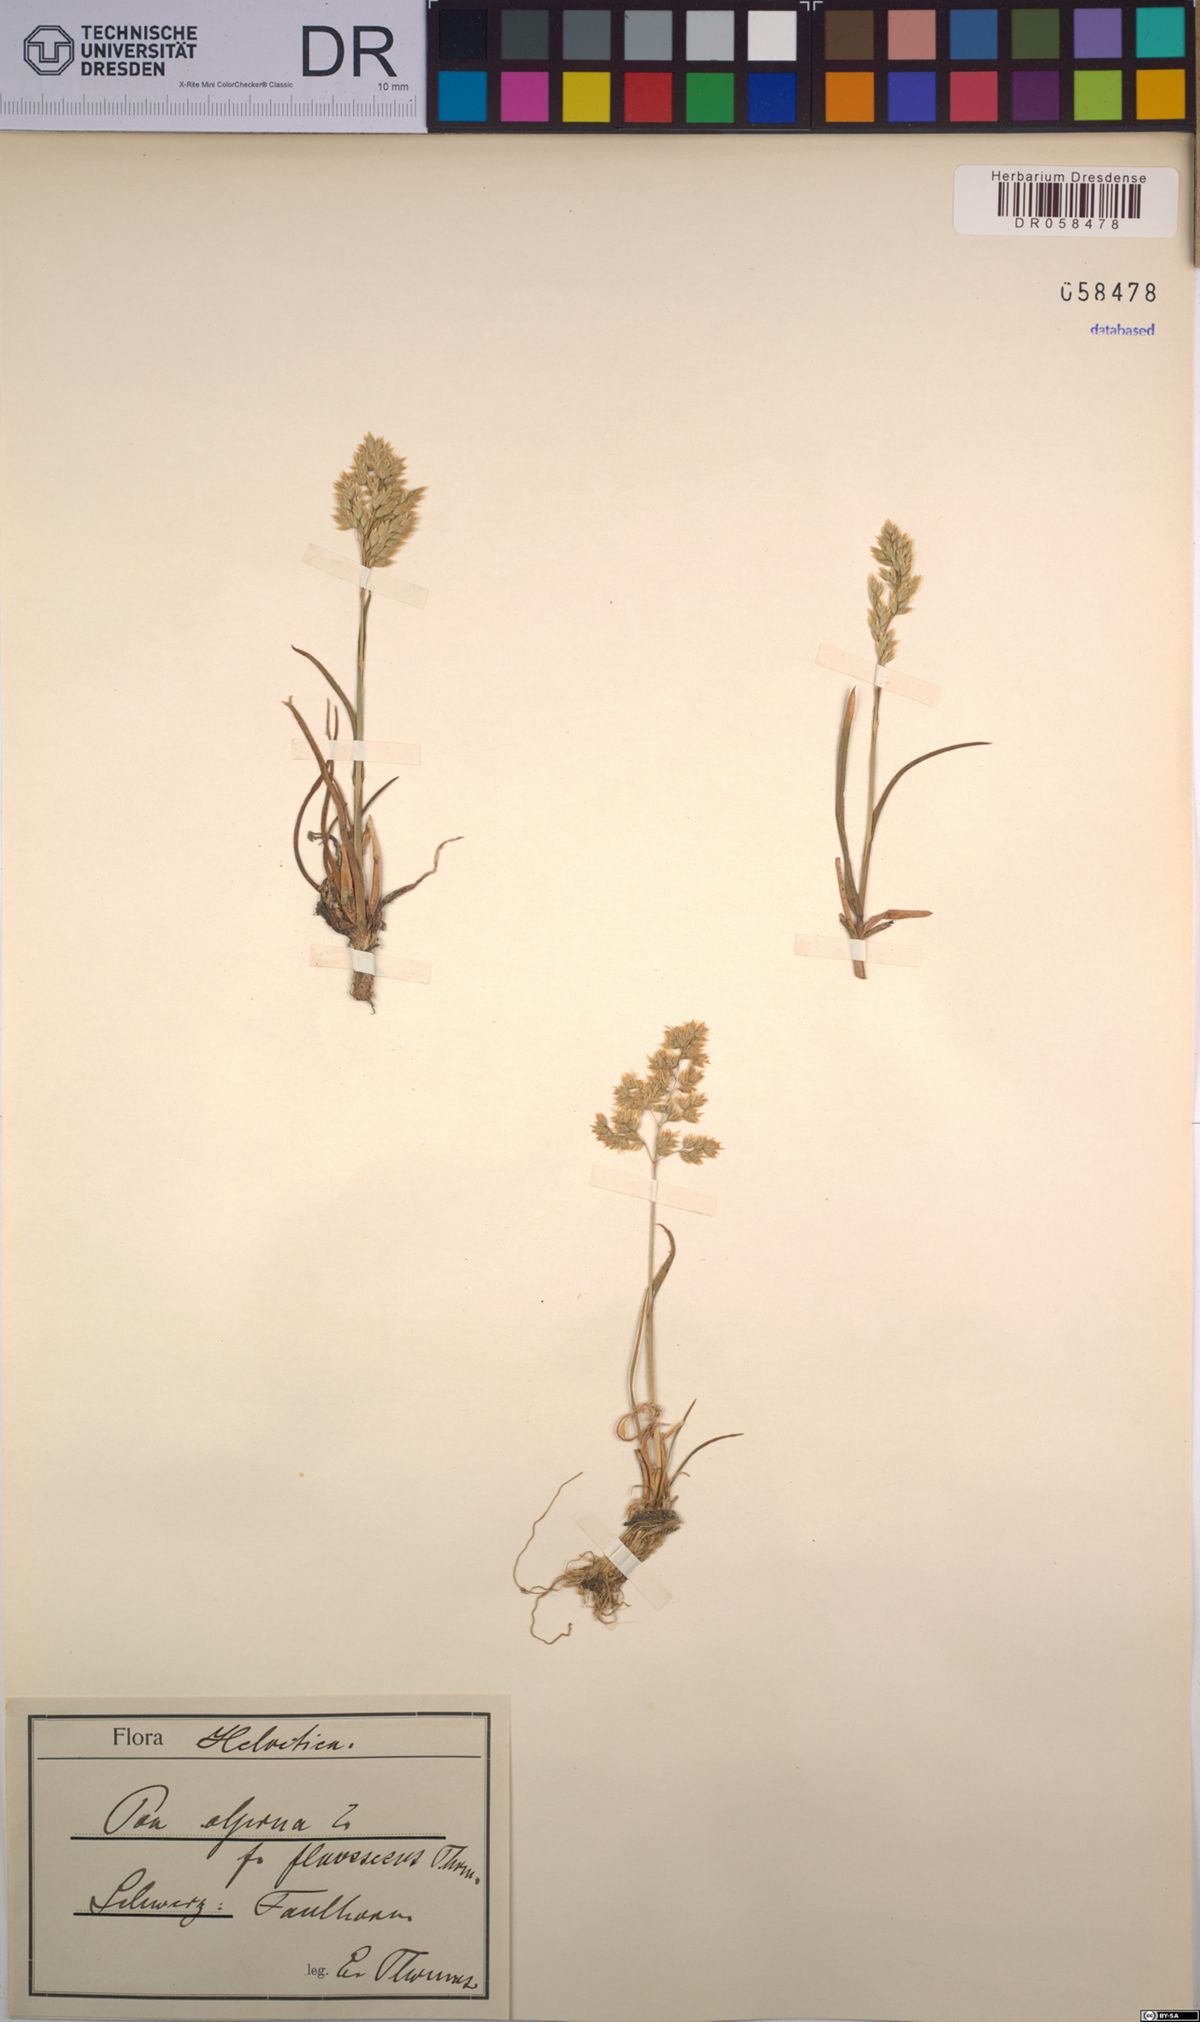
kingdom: Plantae
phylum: Tracheophyta
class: Liliopsida
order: Poales
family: Poaceae
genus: Poa
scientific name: Poa alpina
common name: Alpine bluegrass
